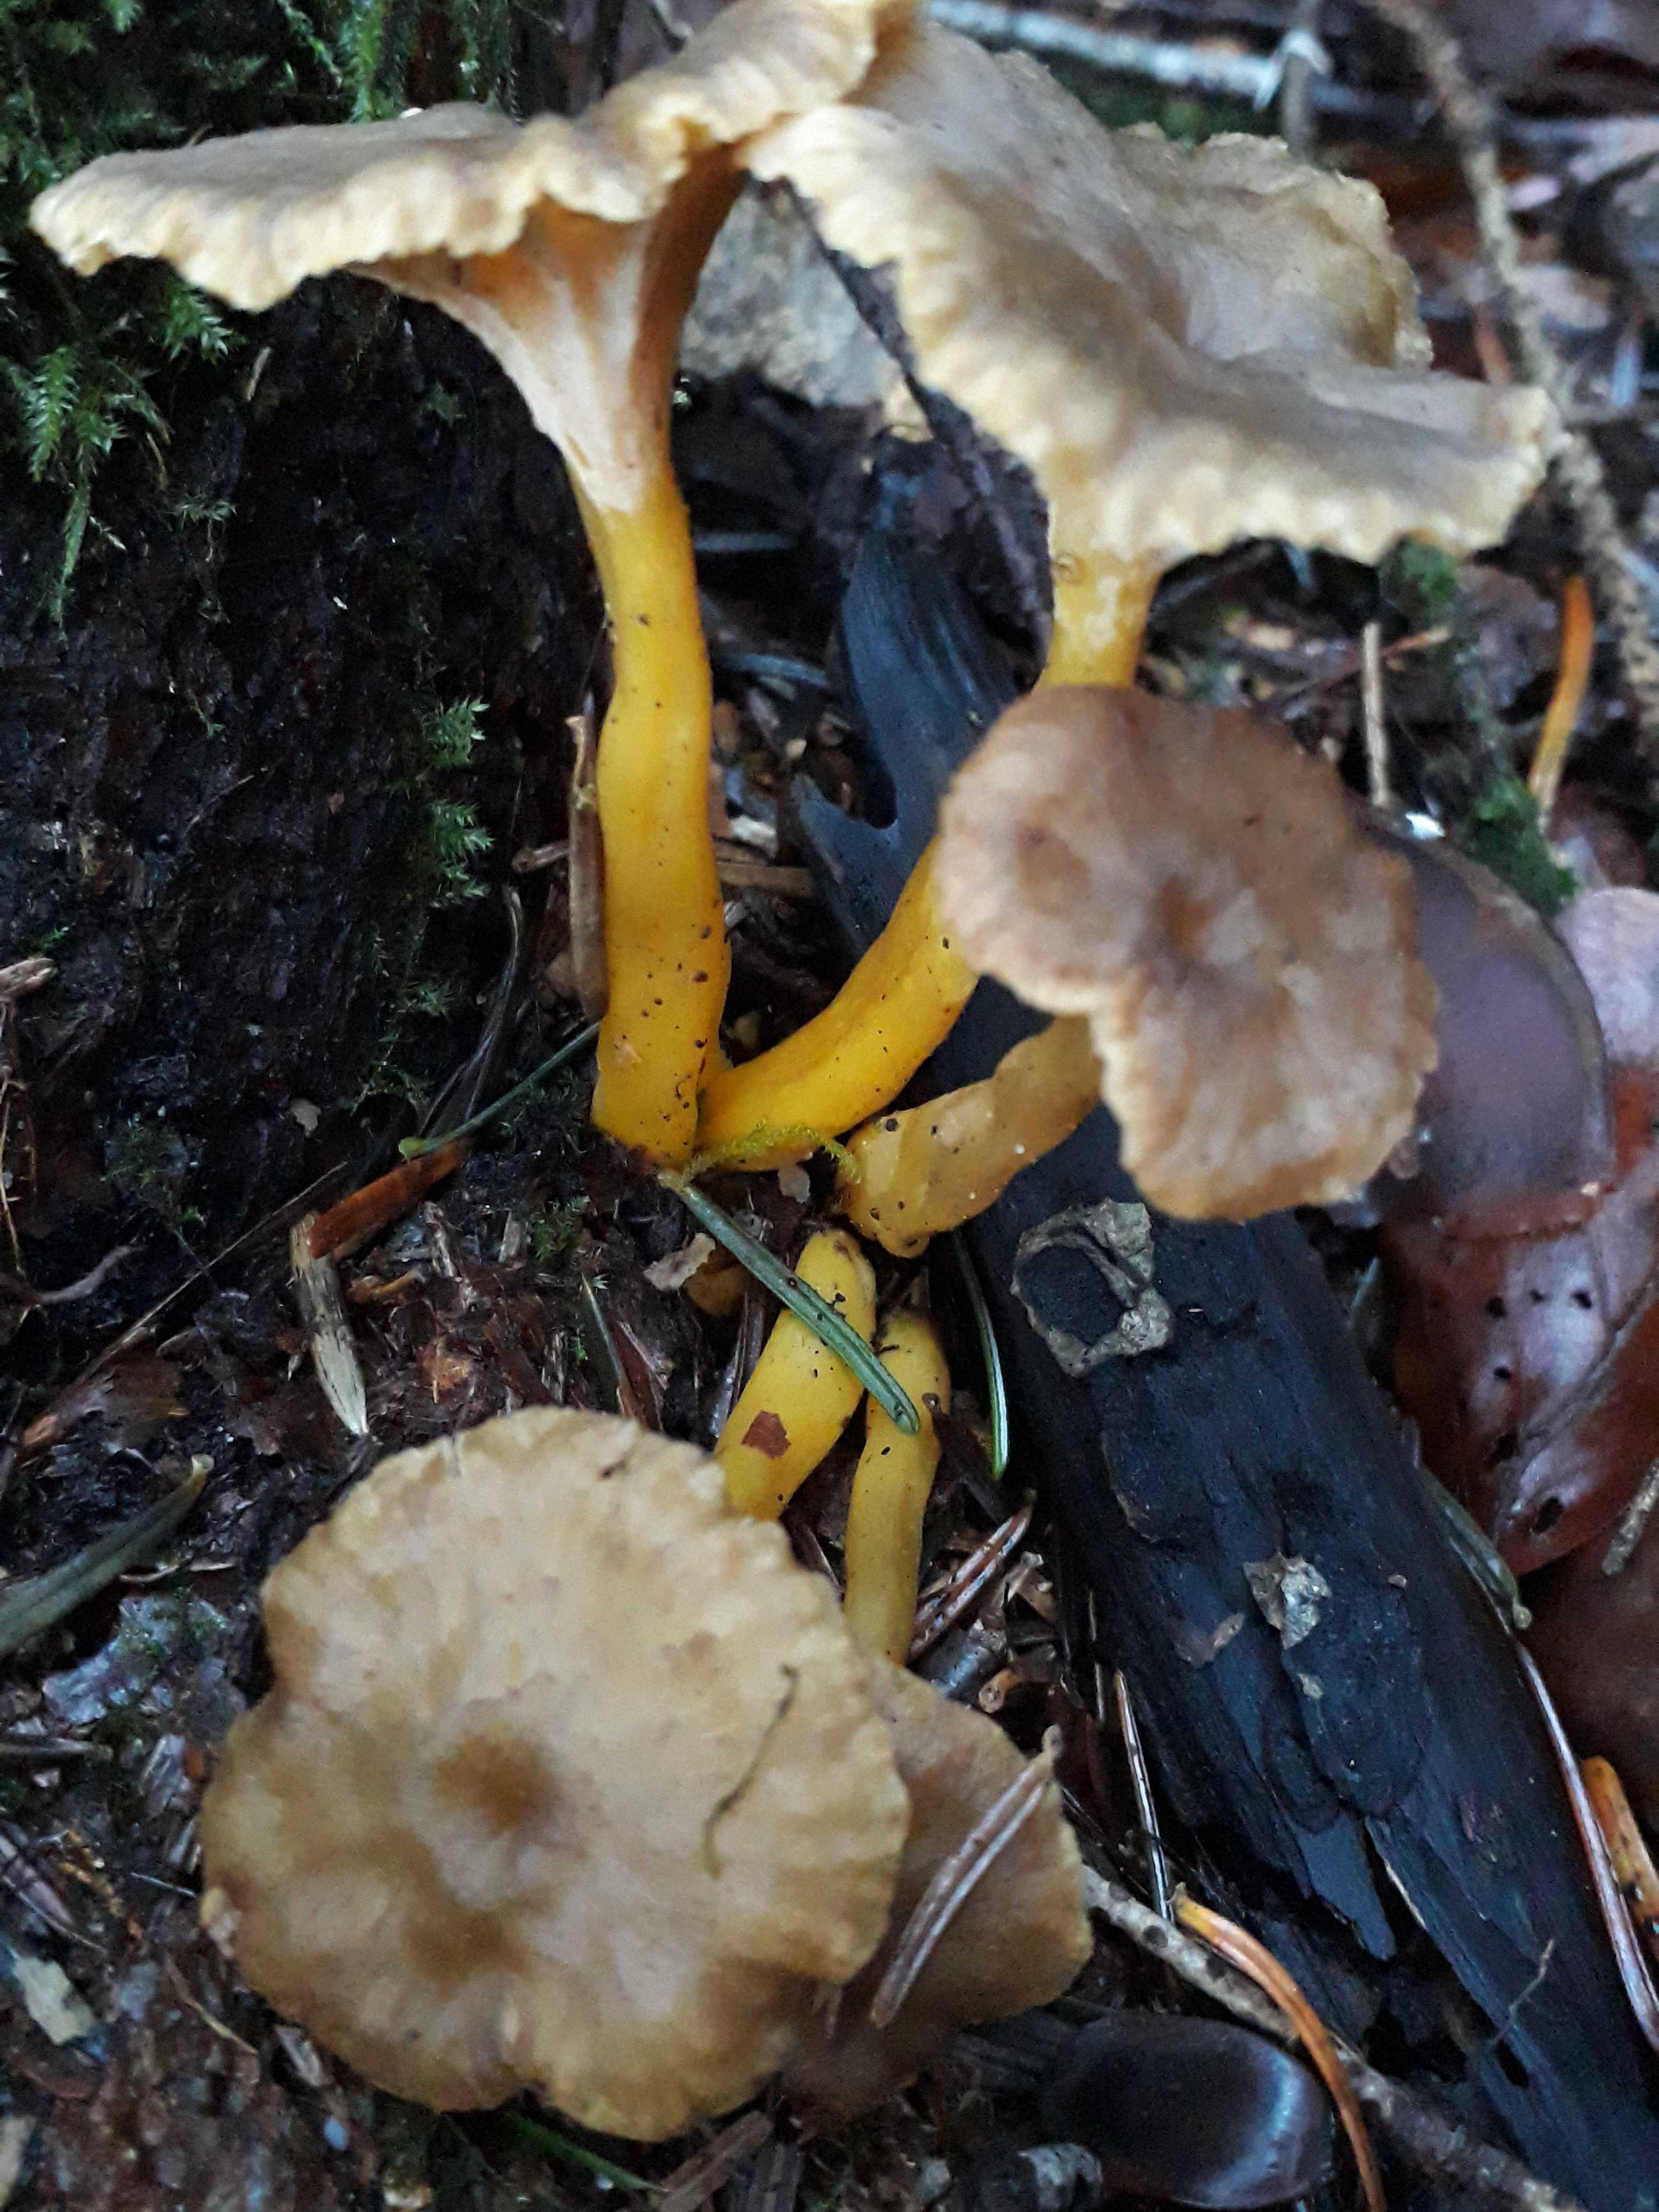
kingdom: Fungi
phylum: Basidiomycota
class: Agaricomycetes
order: Cantharellales
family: Hydnaceae
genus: Craterellus
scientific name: Craterellus tubaeformis
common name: tragt-kantarel
